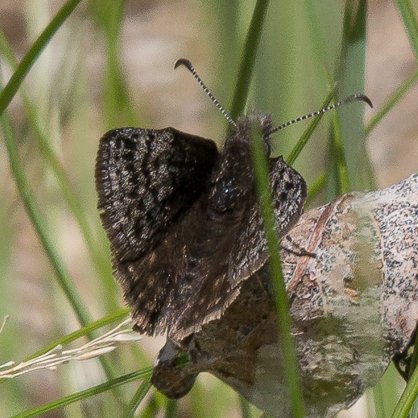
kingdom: Animalia
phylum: Arthropoda
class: Insecta
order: Lepidoptera
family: Hesperiidae
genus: Erynnis
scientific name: Erynnis icelus
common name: Dreamy Duskywing
